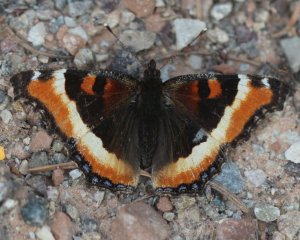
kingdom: Animalia
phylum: Arthropoda
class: Insecta
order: Lepidoptera
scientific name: Lepidoptera
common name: Butterflies
